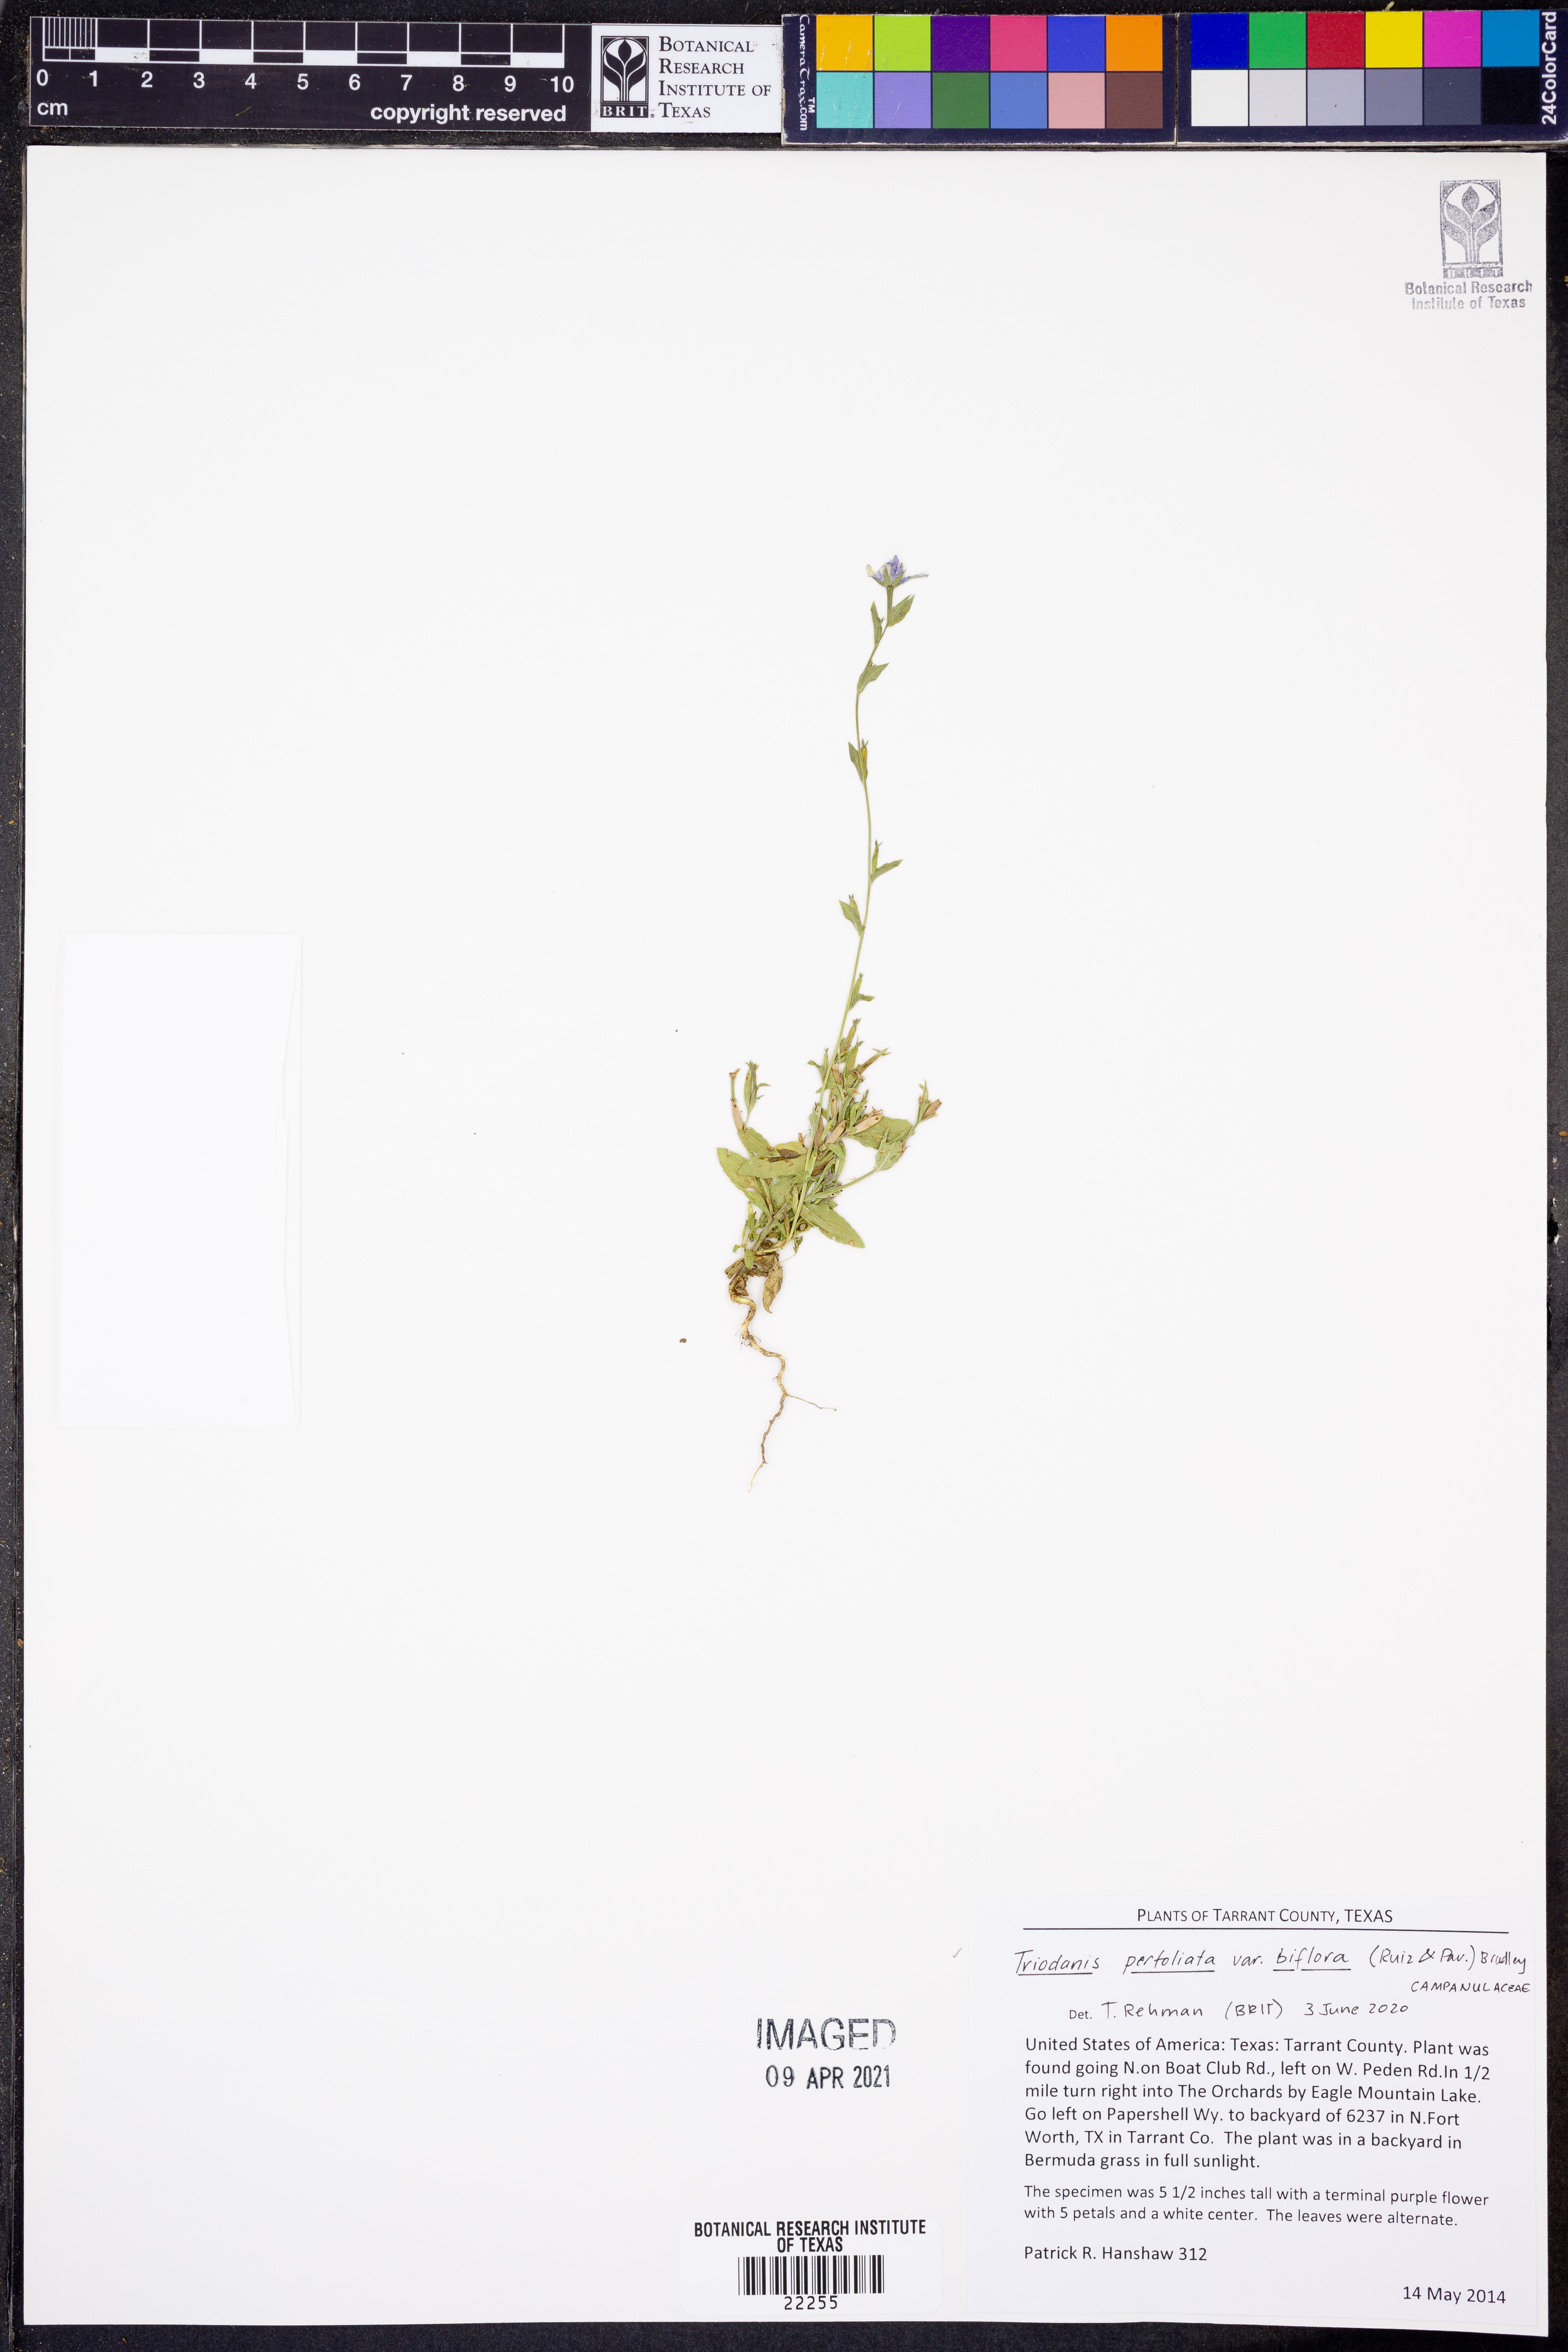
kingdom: Plantae
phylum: Tracheophyta
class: Magnoliopsida
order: Asterales
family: Campanulaceae
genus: Triodanis
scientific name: Triodanis perfoliata
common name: Clasping venus' looking-glass
